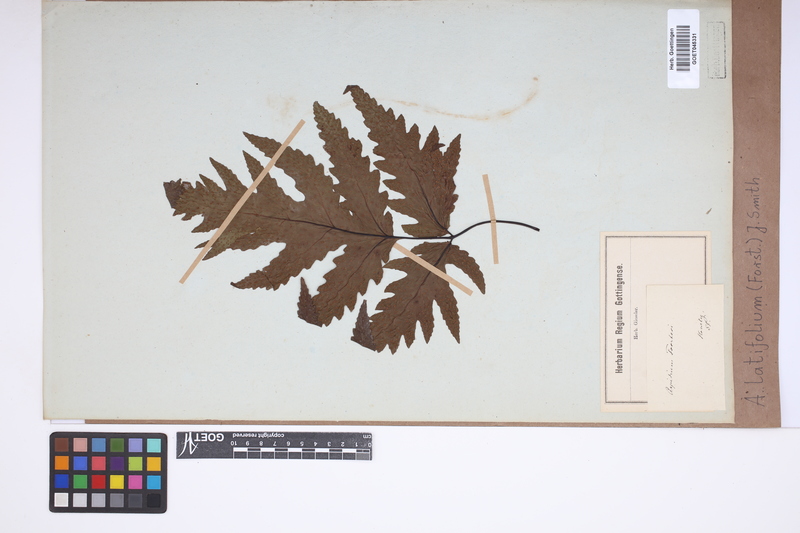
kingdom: Plantae
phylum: Tracheophyta
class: Polypodiopsida
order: Polypodiales
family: Tectariaceae
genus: Tectaria
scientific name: Tectaria latifolia
